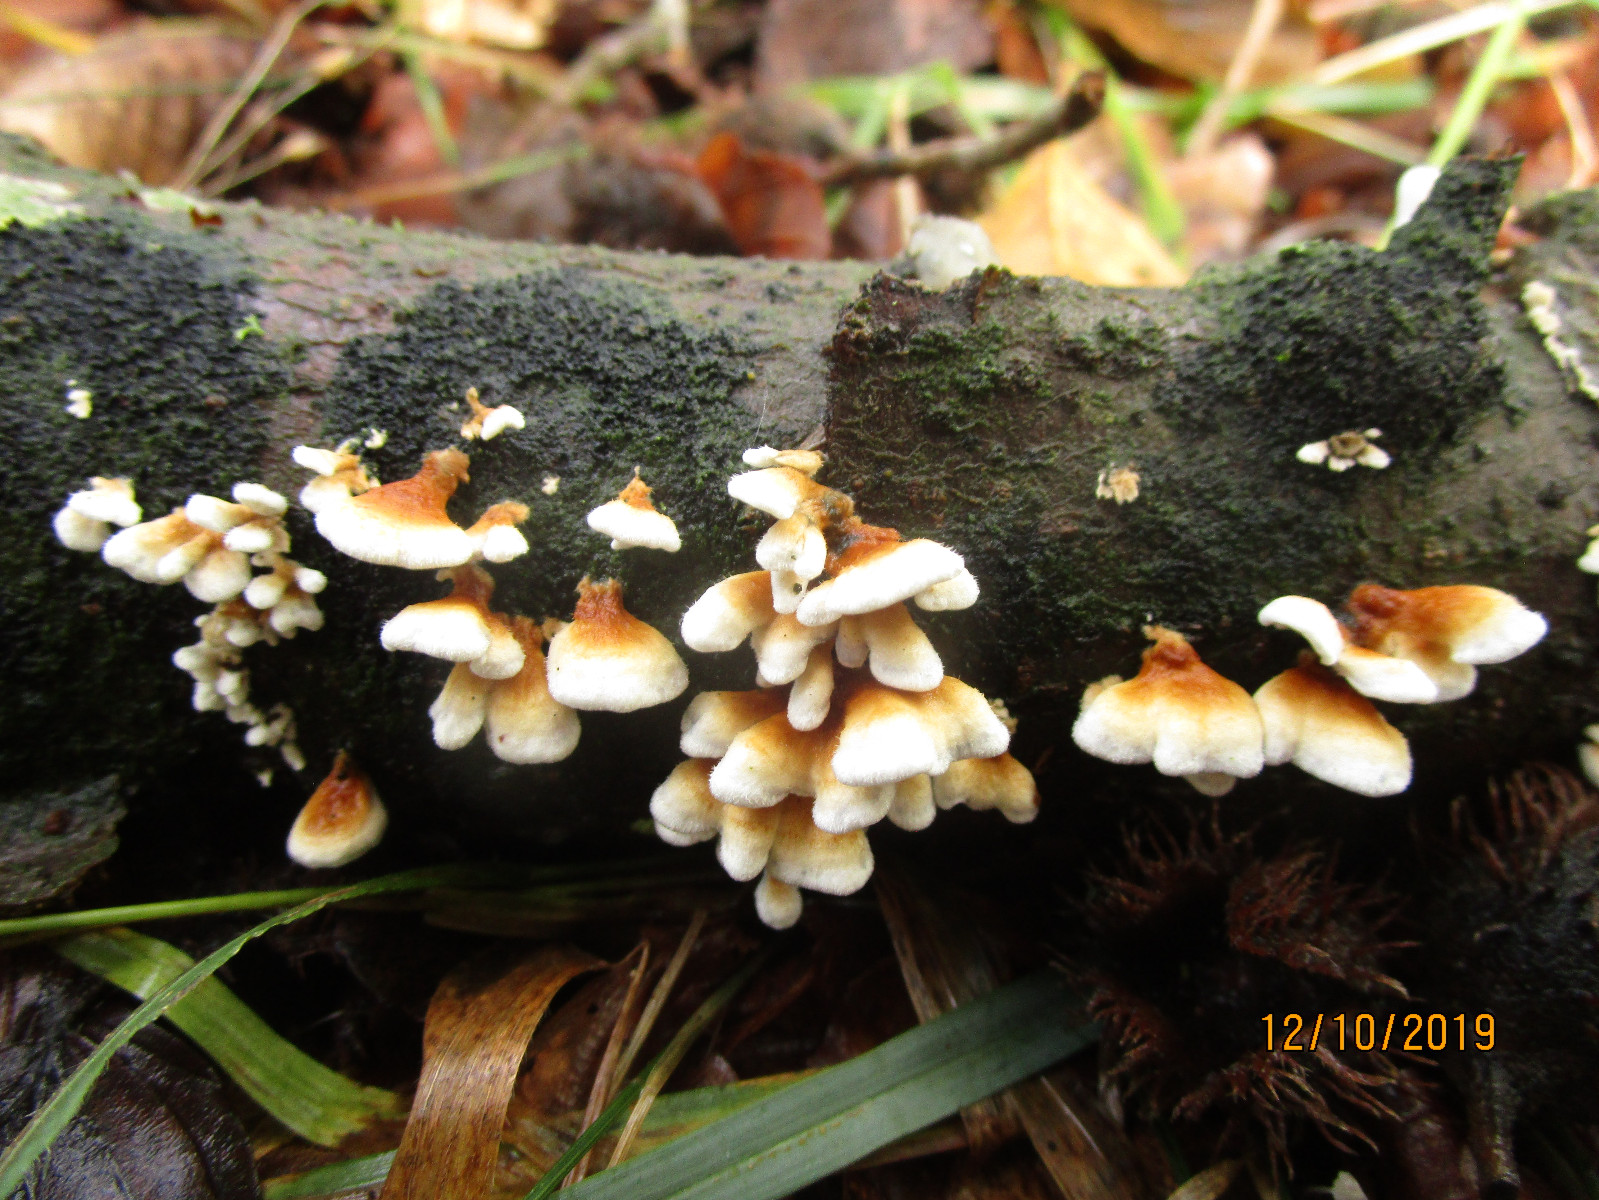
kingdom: Fungi
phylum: Basidiomycota
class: Agaricomycetes
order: Amylocorticiales
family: Amylocorticiaceae
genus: Plicaturopsis
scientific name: Plicaturopsis crispa
